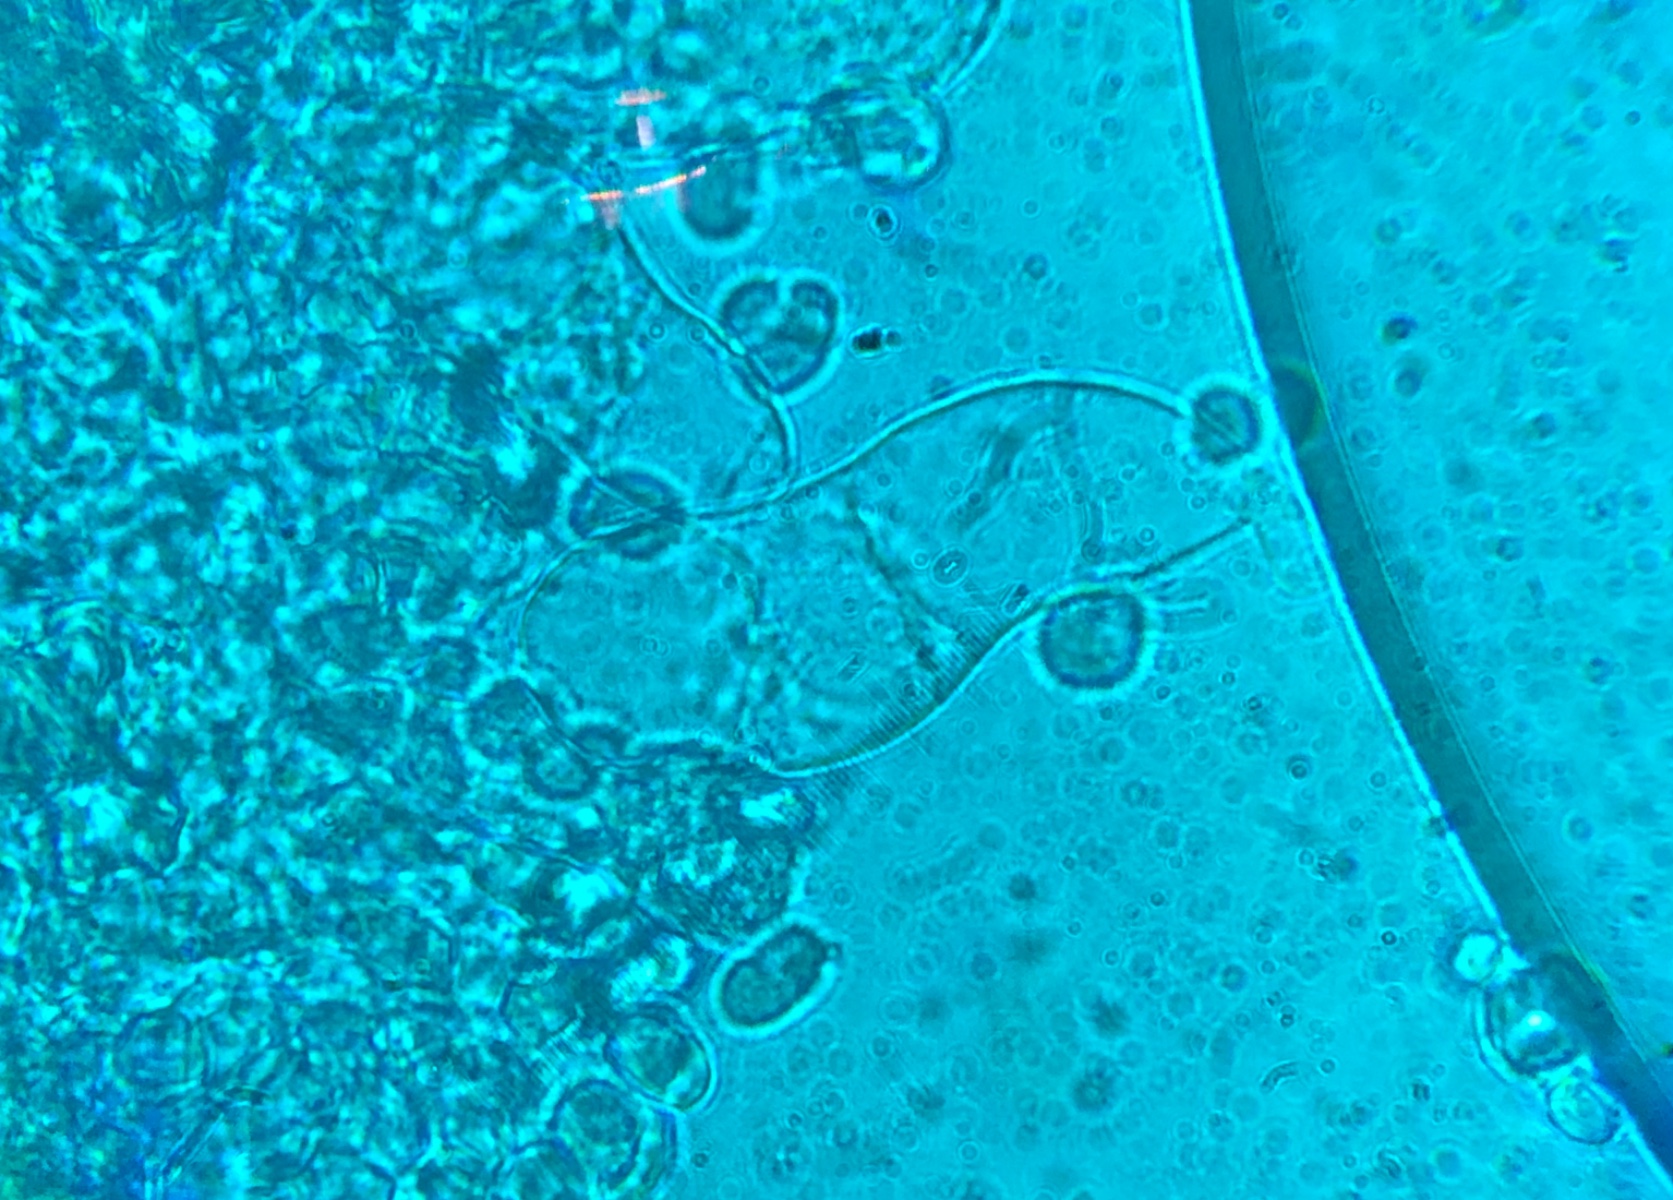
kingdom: Fungi
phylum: Basidiomycota
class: Agaricomycetes
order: Agaricales
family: Mycenaceae
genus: Mycena
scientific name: Mycena
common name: huesvamp
